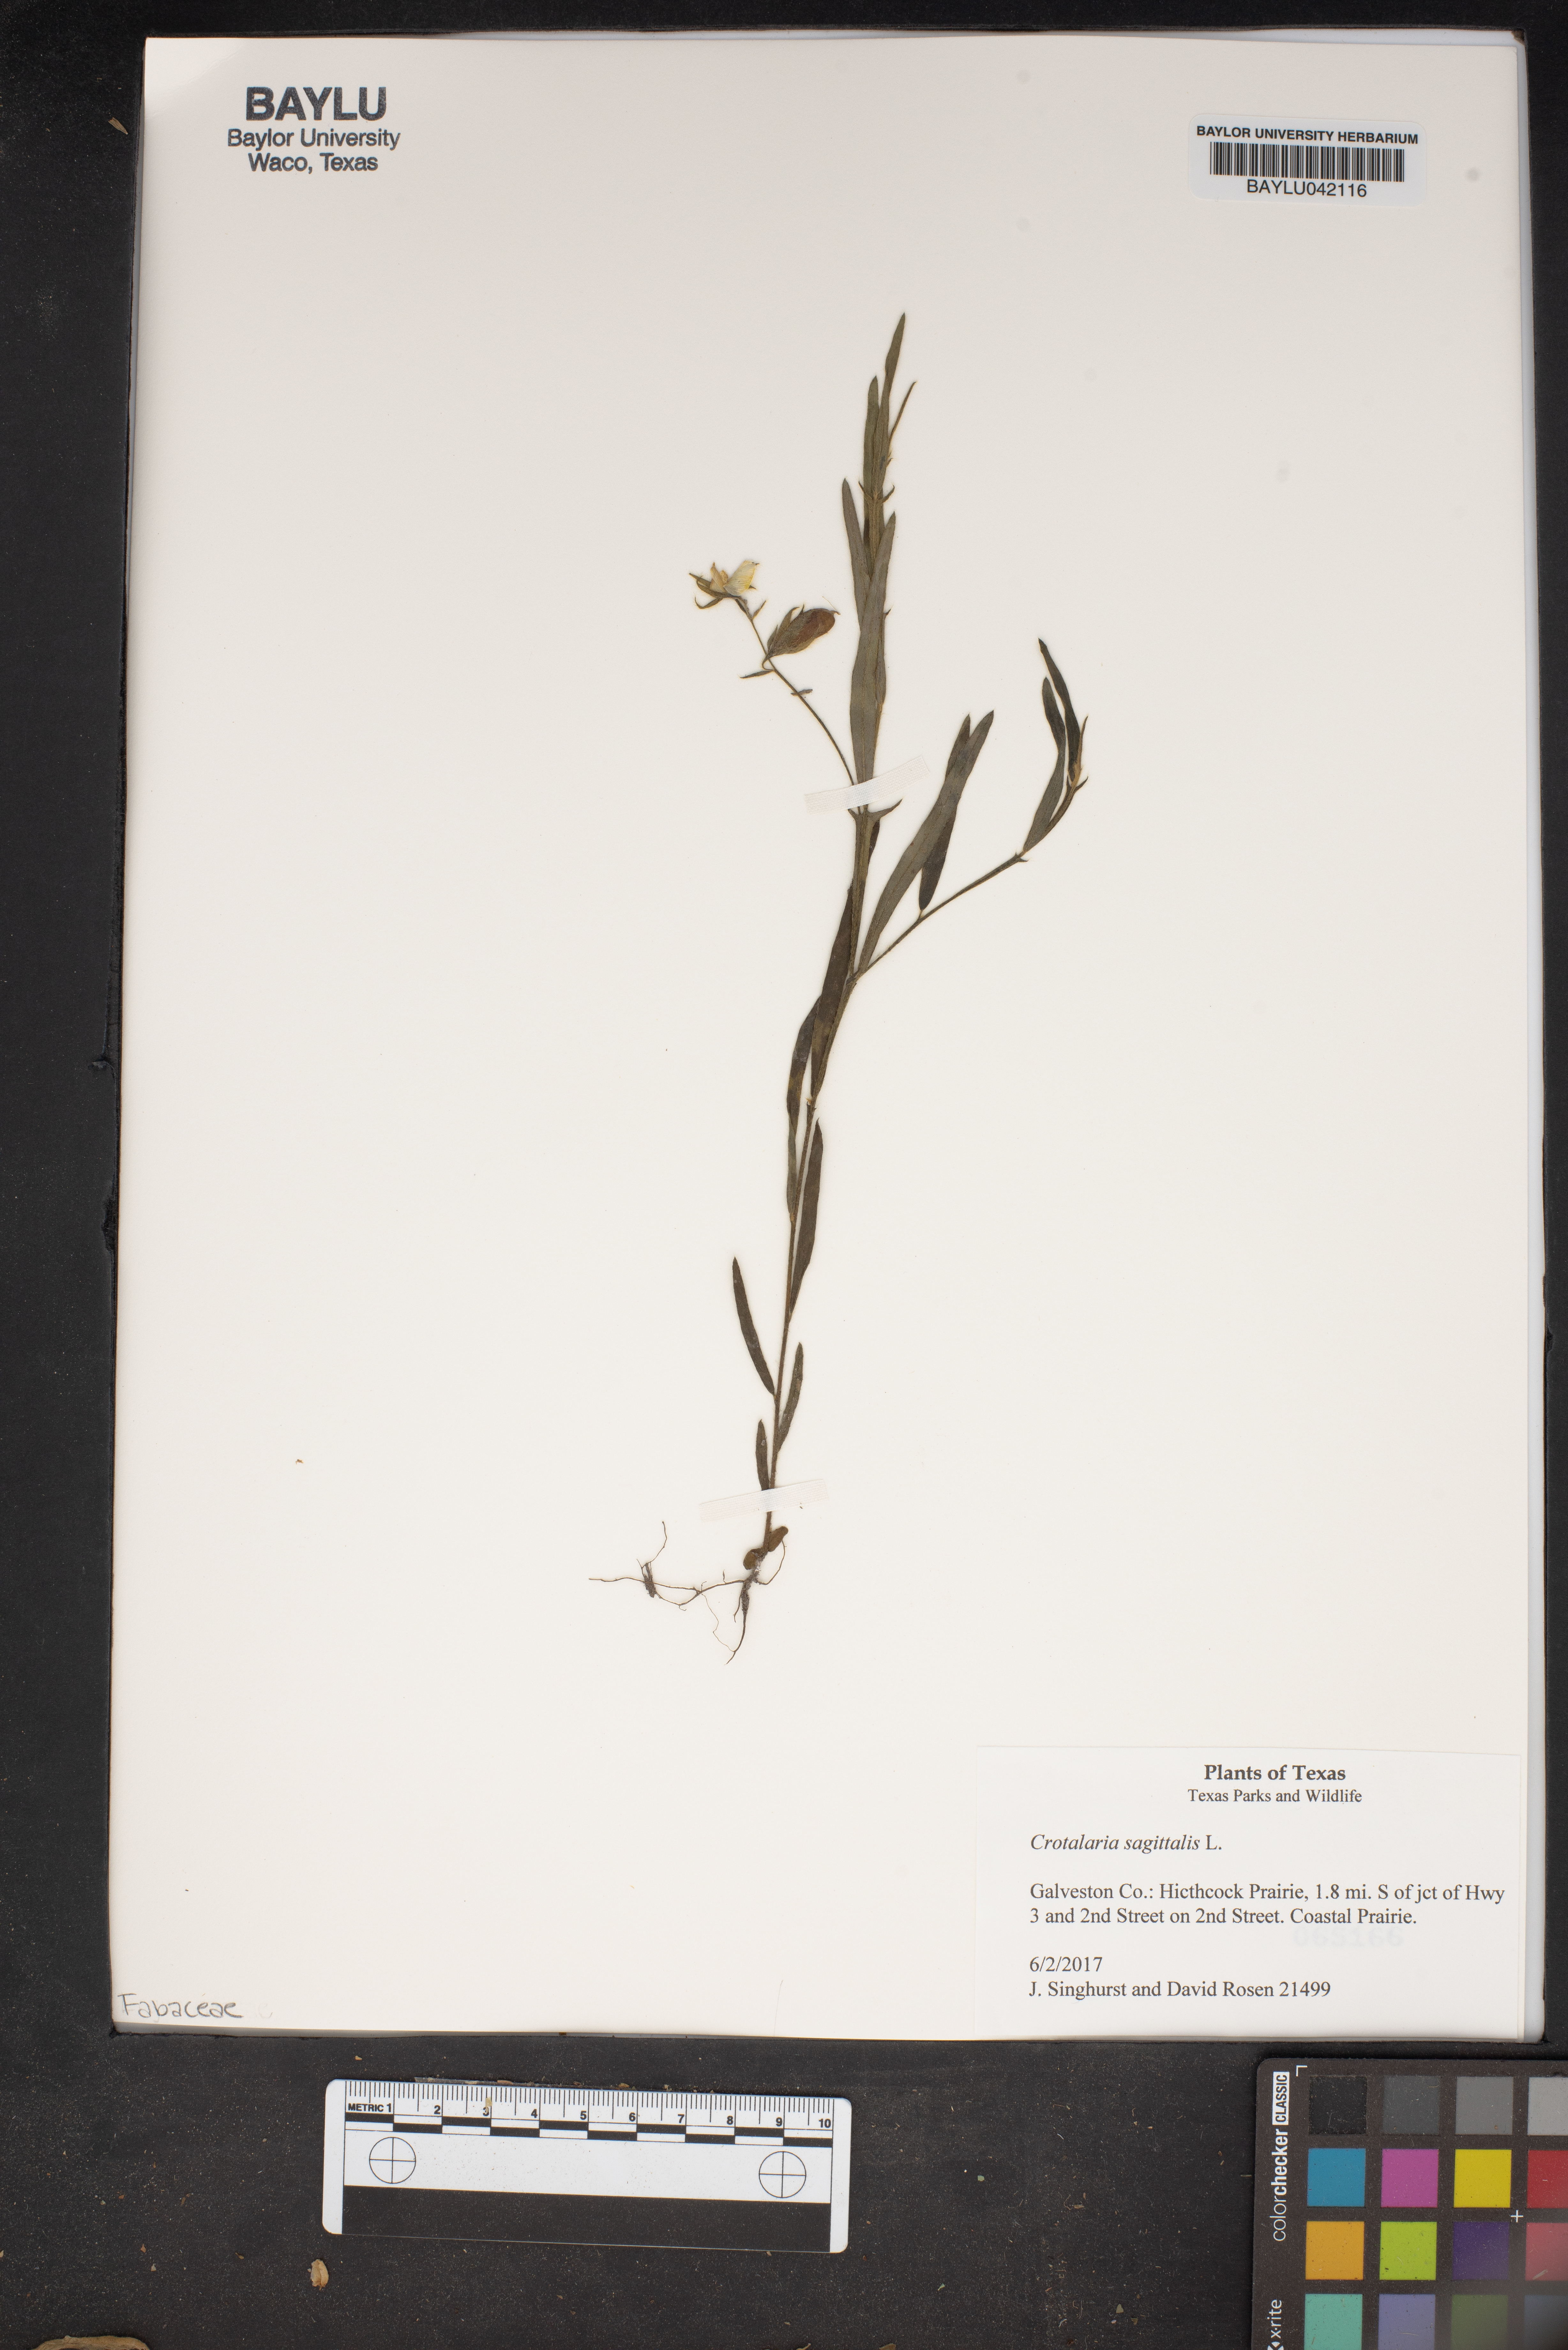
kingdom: Plantae
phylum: Tracheophyta
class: Magnoliopsida
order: Fabales
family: Fabaceae
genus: Crotalaria
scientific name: Crotalaria sagittalis
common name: Arrowhead rattlebox
